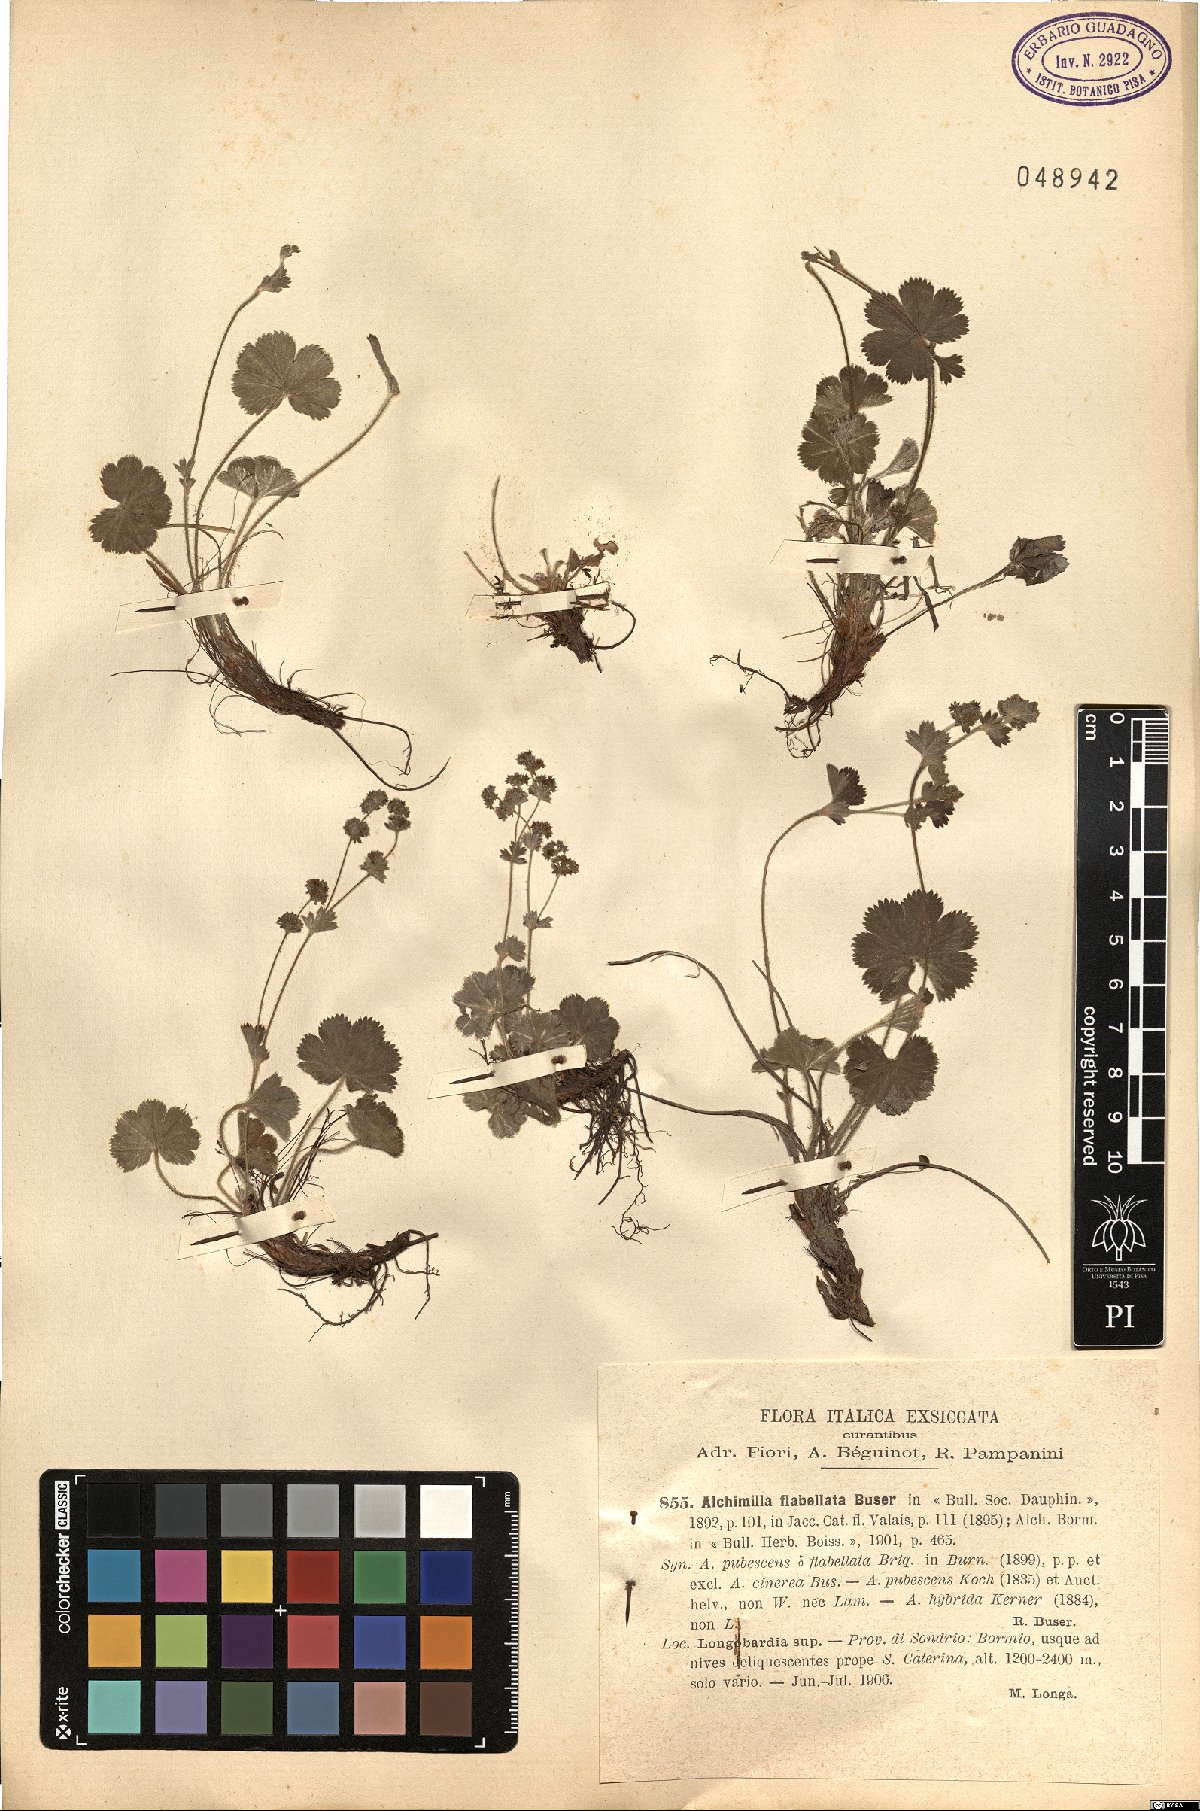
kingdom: Plantae
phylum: Tracheophyta
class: Magnoliopsida
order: Rosales
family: Rosaceae
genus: Alchemilla
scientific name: Alchemilla flabellata
